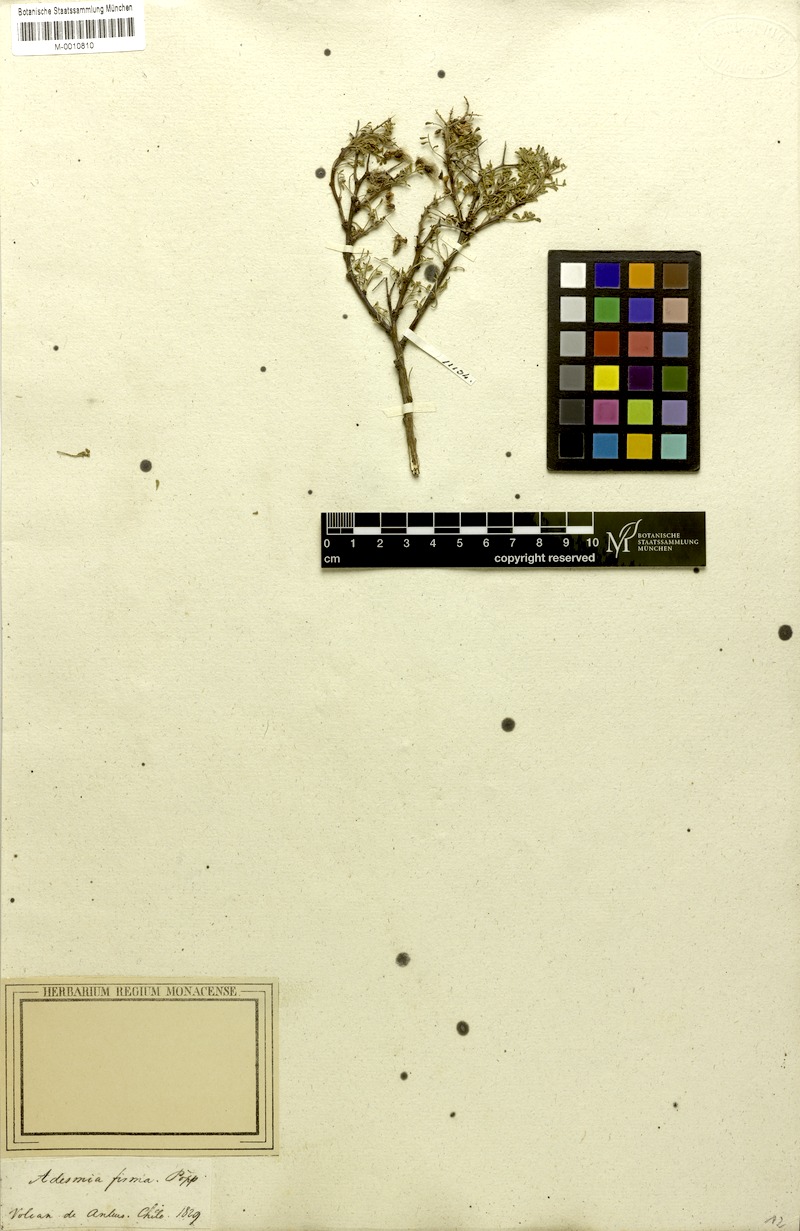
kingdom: Plantae
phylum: Tracheophyta
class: Magnoliopsida
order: Fabales
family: Fabaceae
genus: Adesmia
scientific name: Adesmia firma
